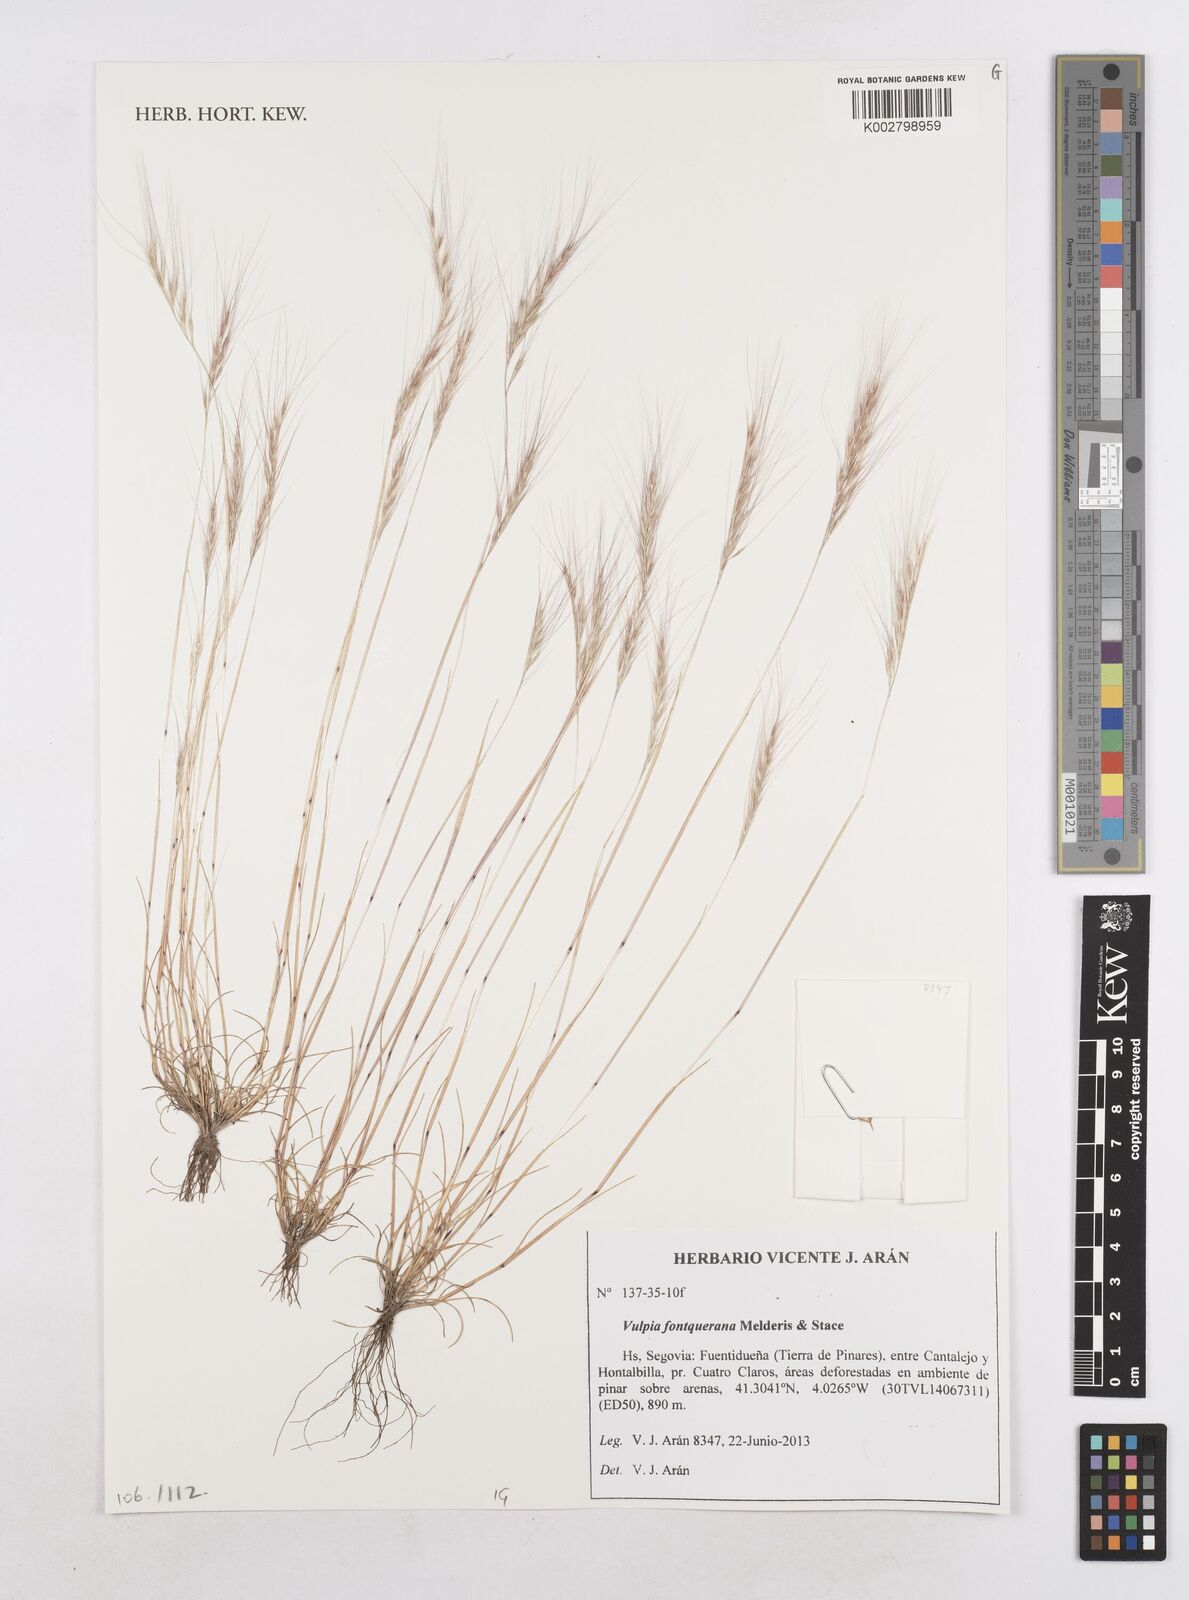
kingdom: Plantae
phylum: Tracheophyta
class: Liliopsida
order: Poales
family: Poaceae
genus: Festuca
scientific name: Festuca Vulpia fontqueriana
